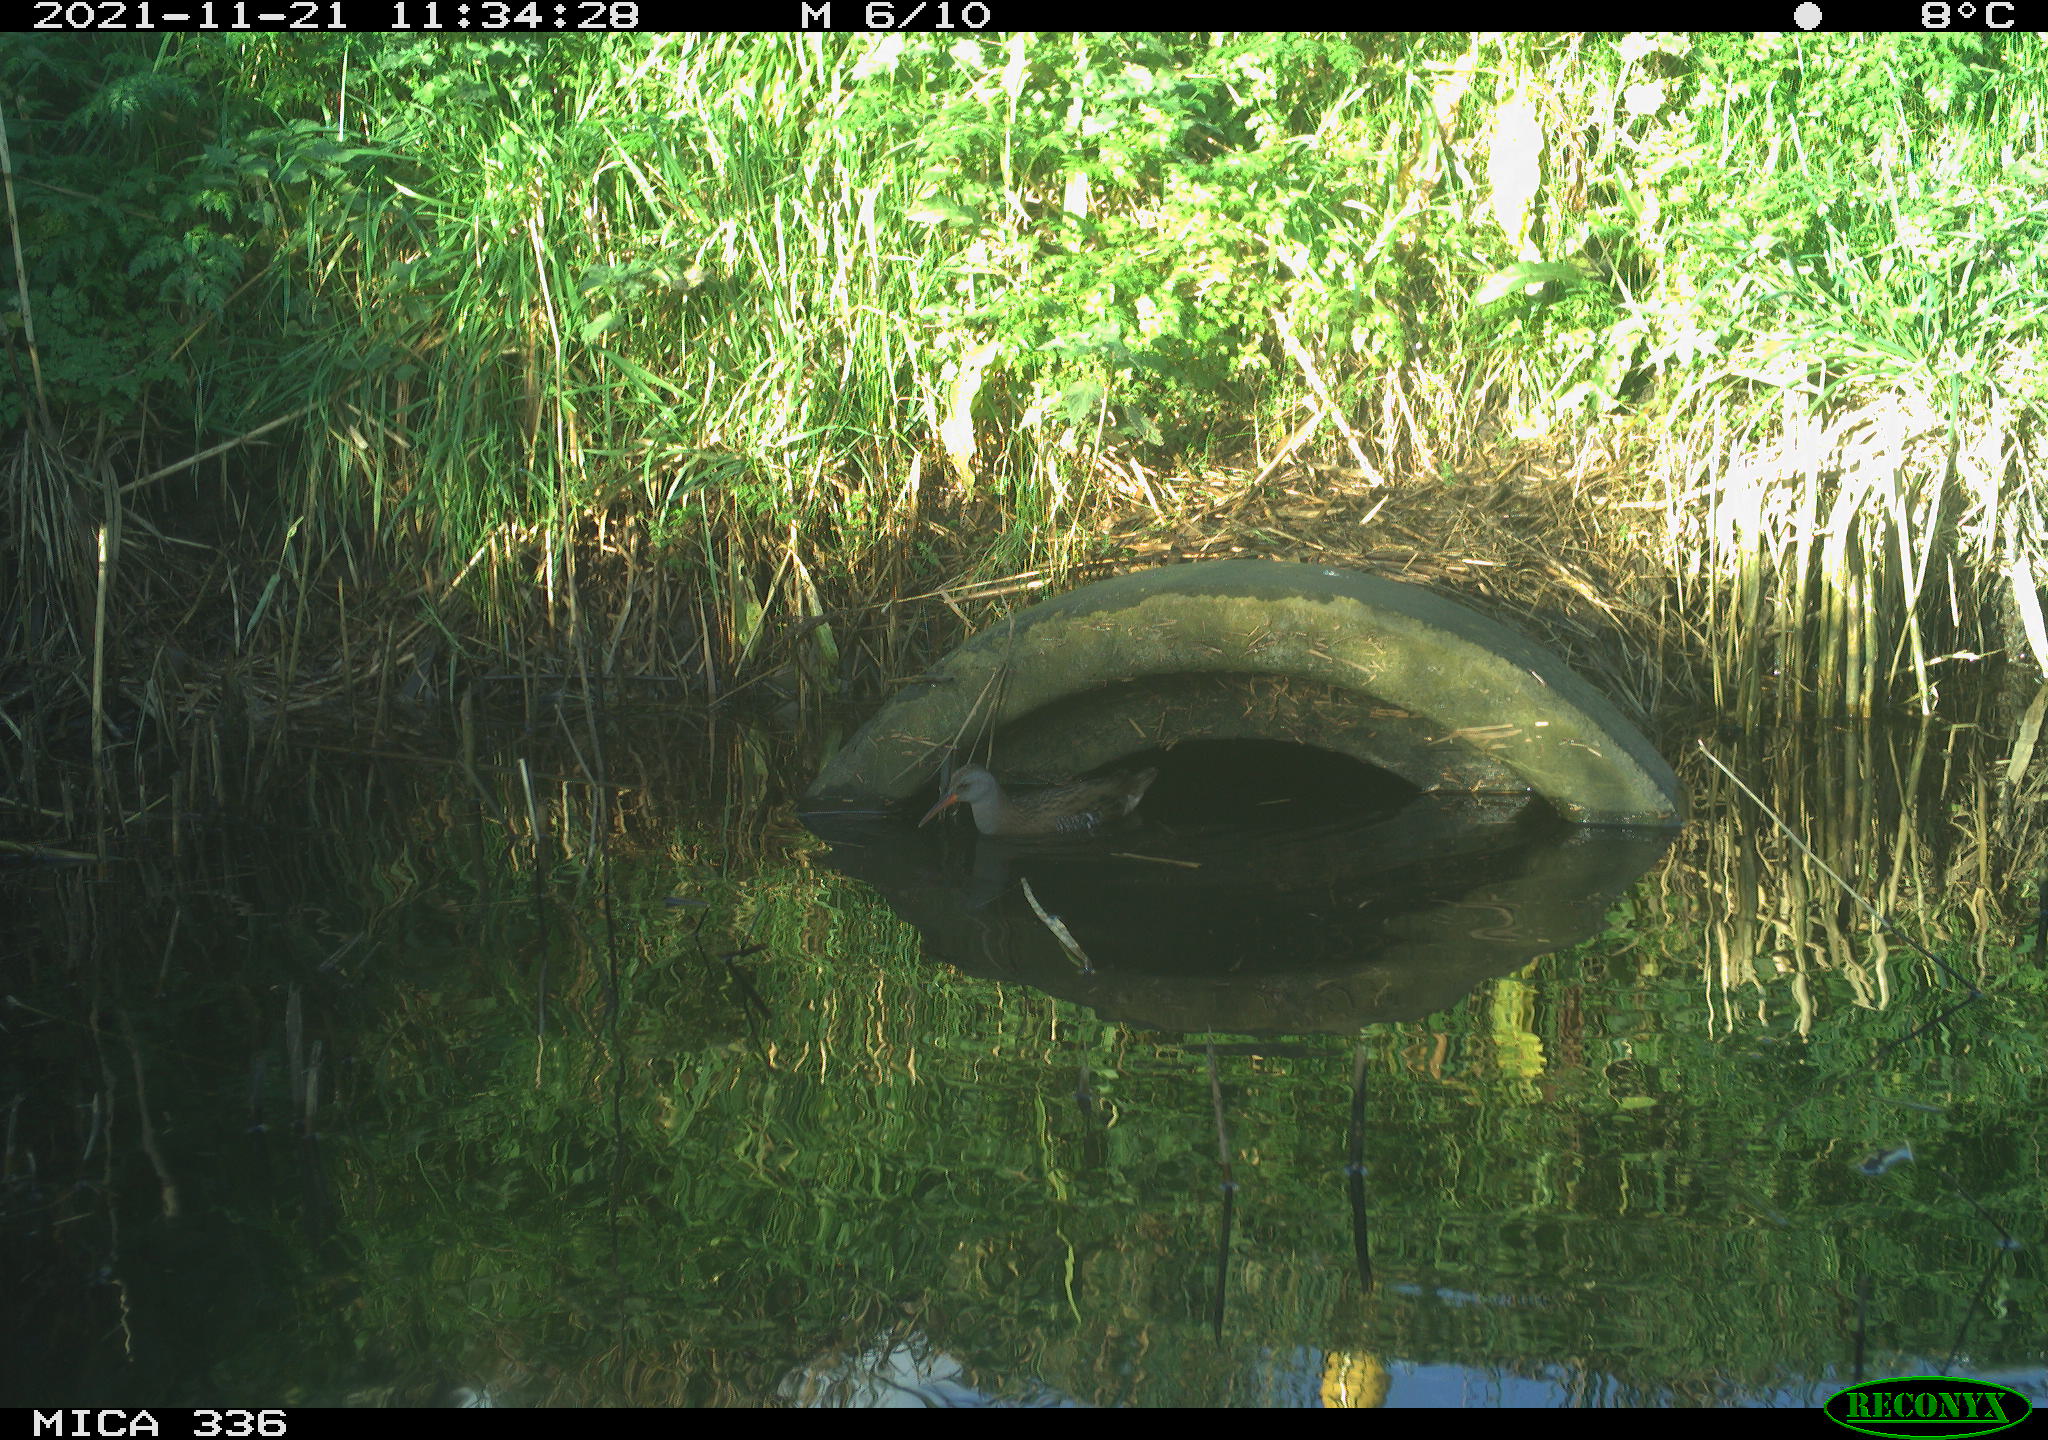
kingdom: Animalia
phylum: Chordata
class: Aves
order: Gruiformes
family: Rallidae
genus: Gallinula
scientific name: Gallinula chloropus
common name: Common moorhen
